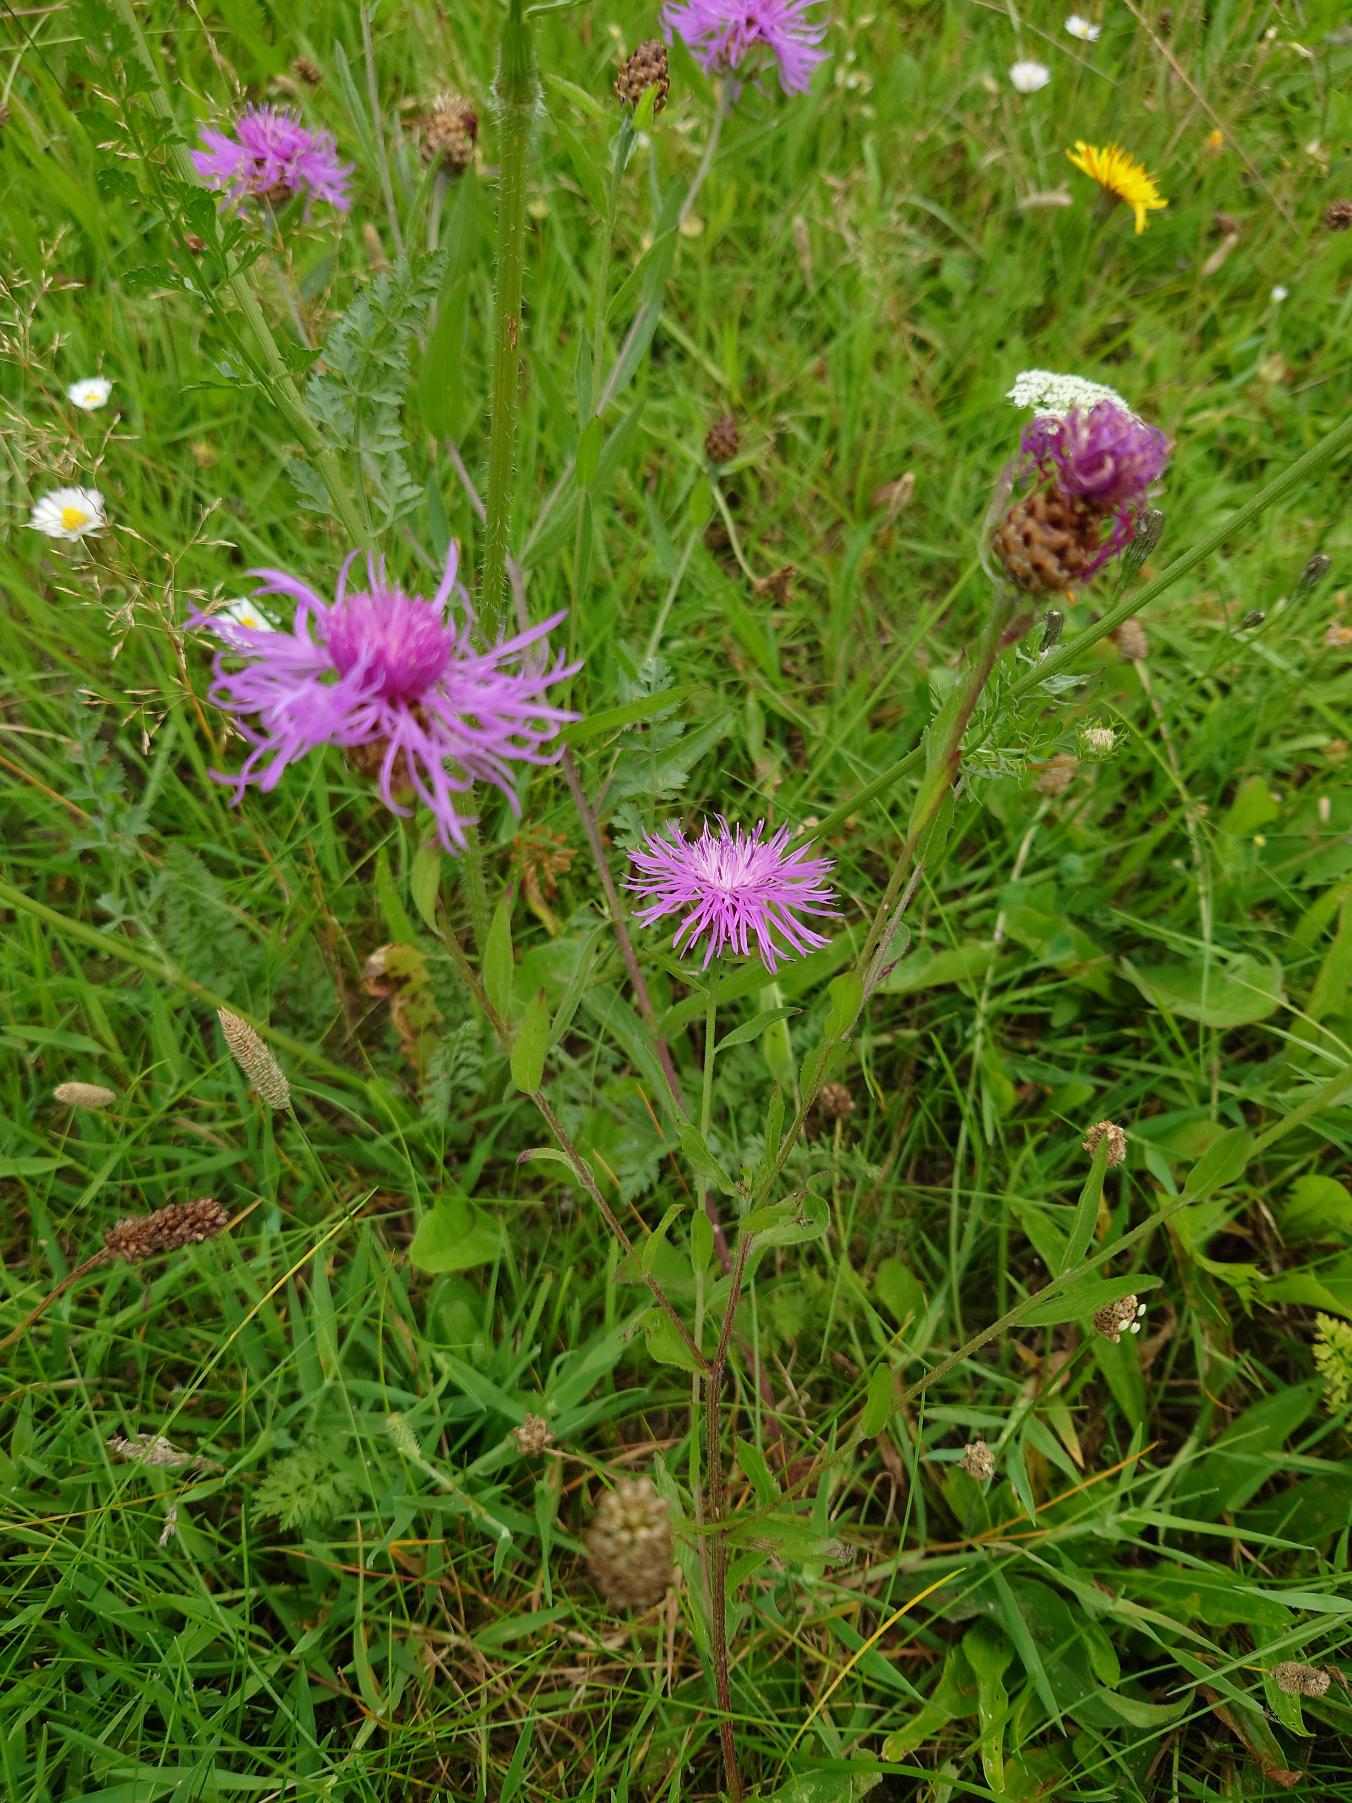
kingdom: Plantae
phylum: Tracheophyta
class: Magnoliopsida
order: Asterales
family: Asteraceae
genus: Centaurea
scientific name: Centaurea jacea
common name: Almindelig knopurt
